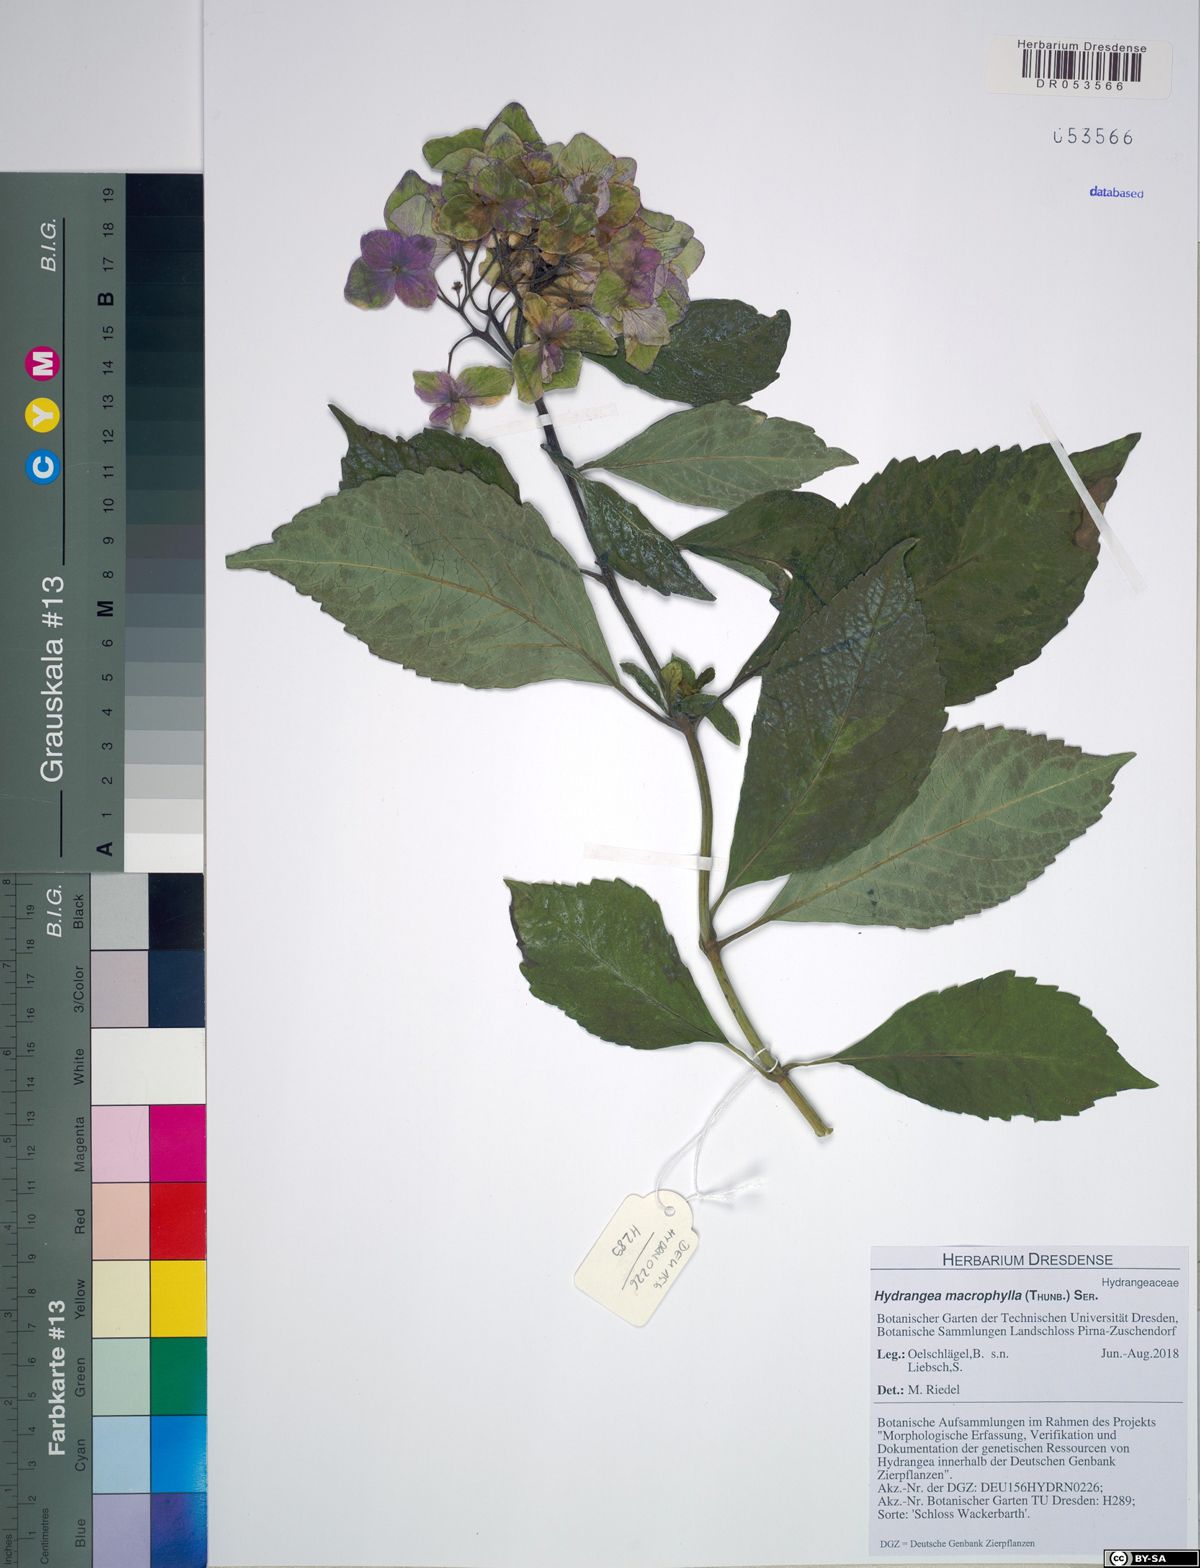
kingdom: Plantae
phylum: Tracheophyta
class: Magnoliopsida
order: Cornales
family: Hydrangeaceae
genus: Hydrangea
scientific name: Hydrangea macrophylla
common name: Hydrangea
